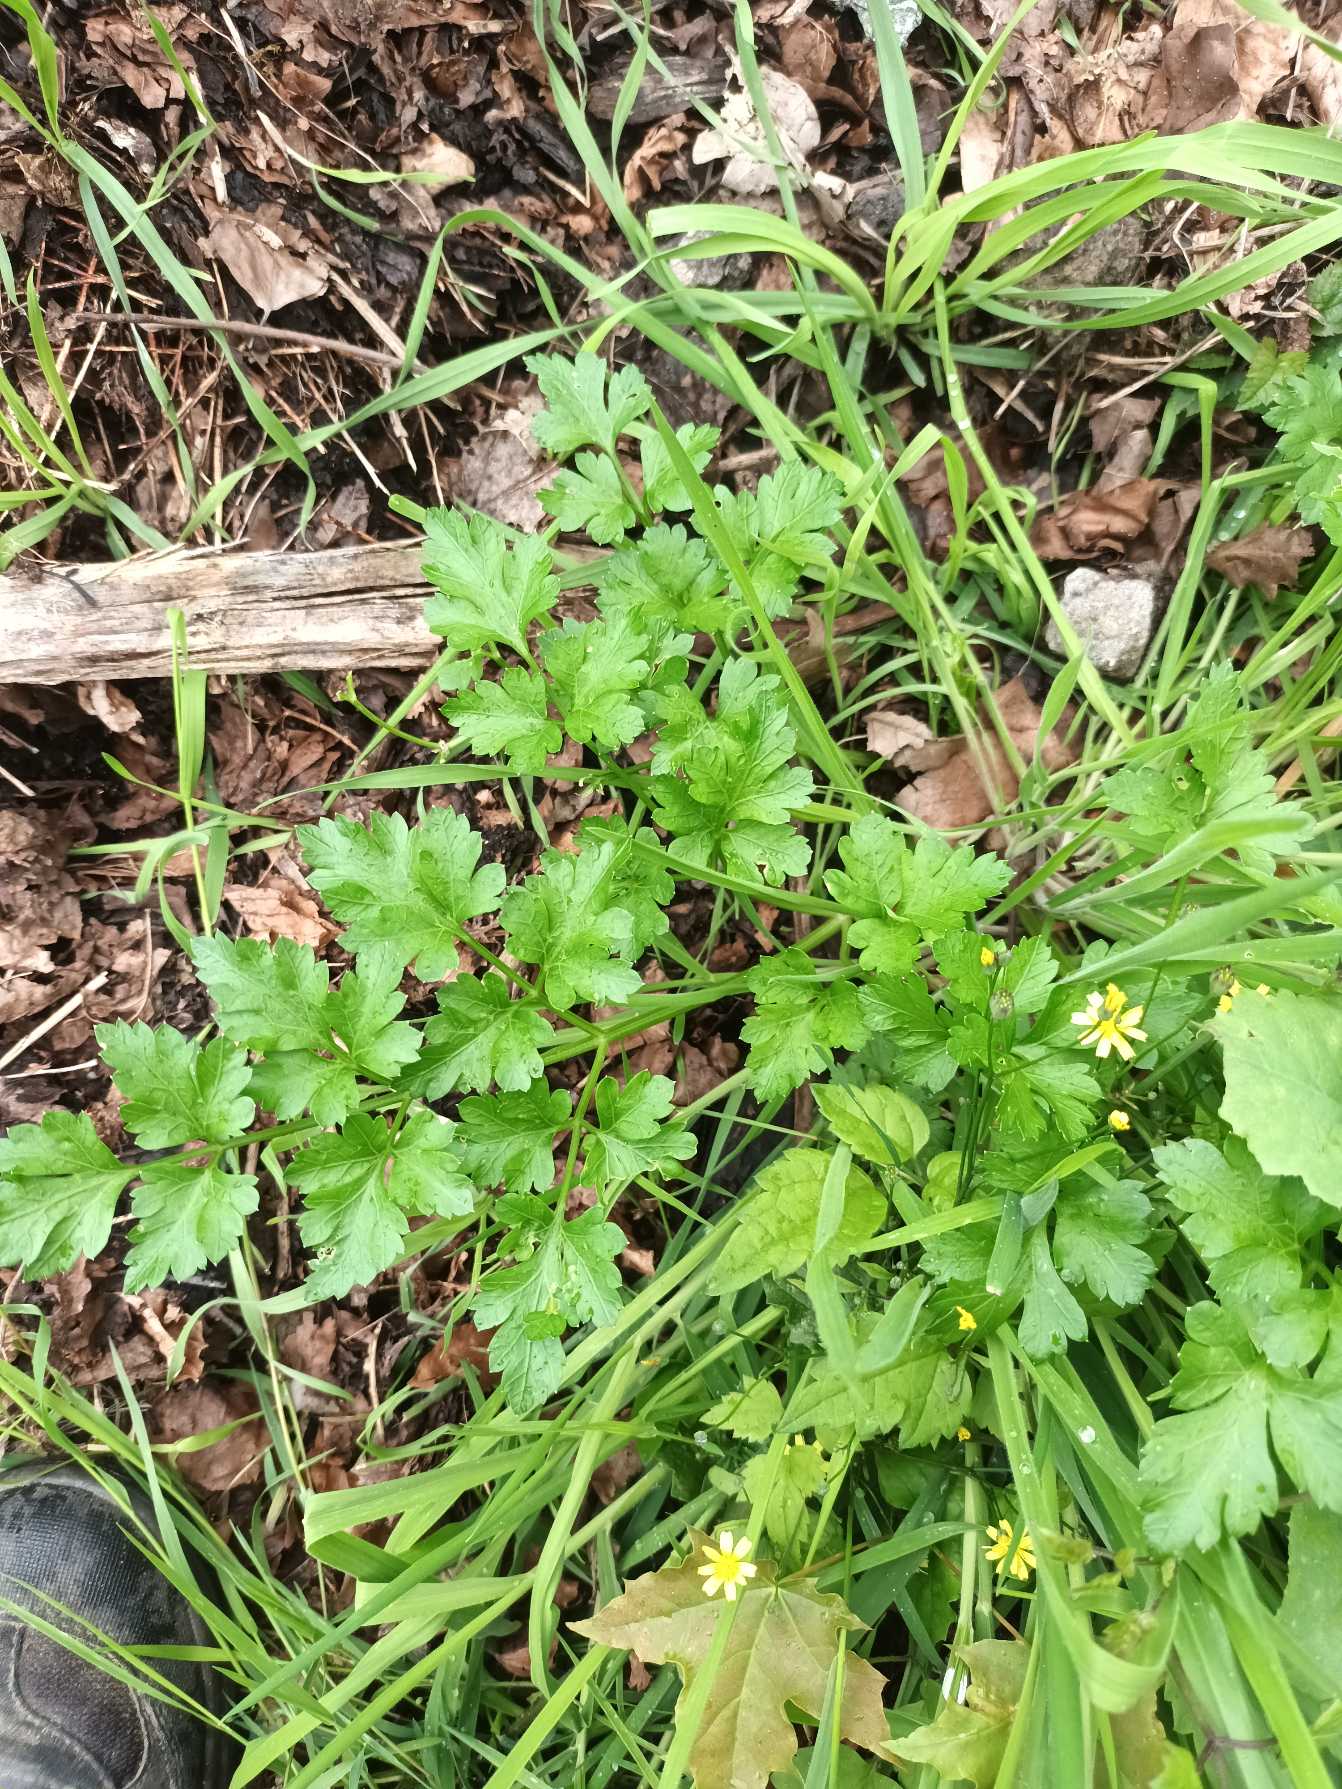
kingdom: Plantae
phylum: Tracheophyta
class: Magnoliopsida
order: Apiales
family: Apiaceae
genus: Petroselinum
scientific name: Petroselinum crispum
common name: Persille
